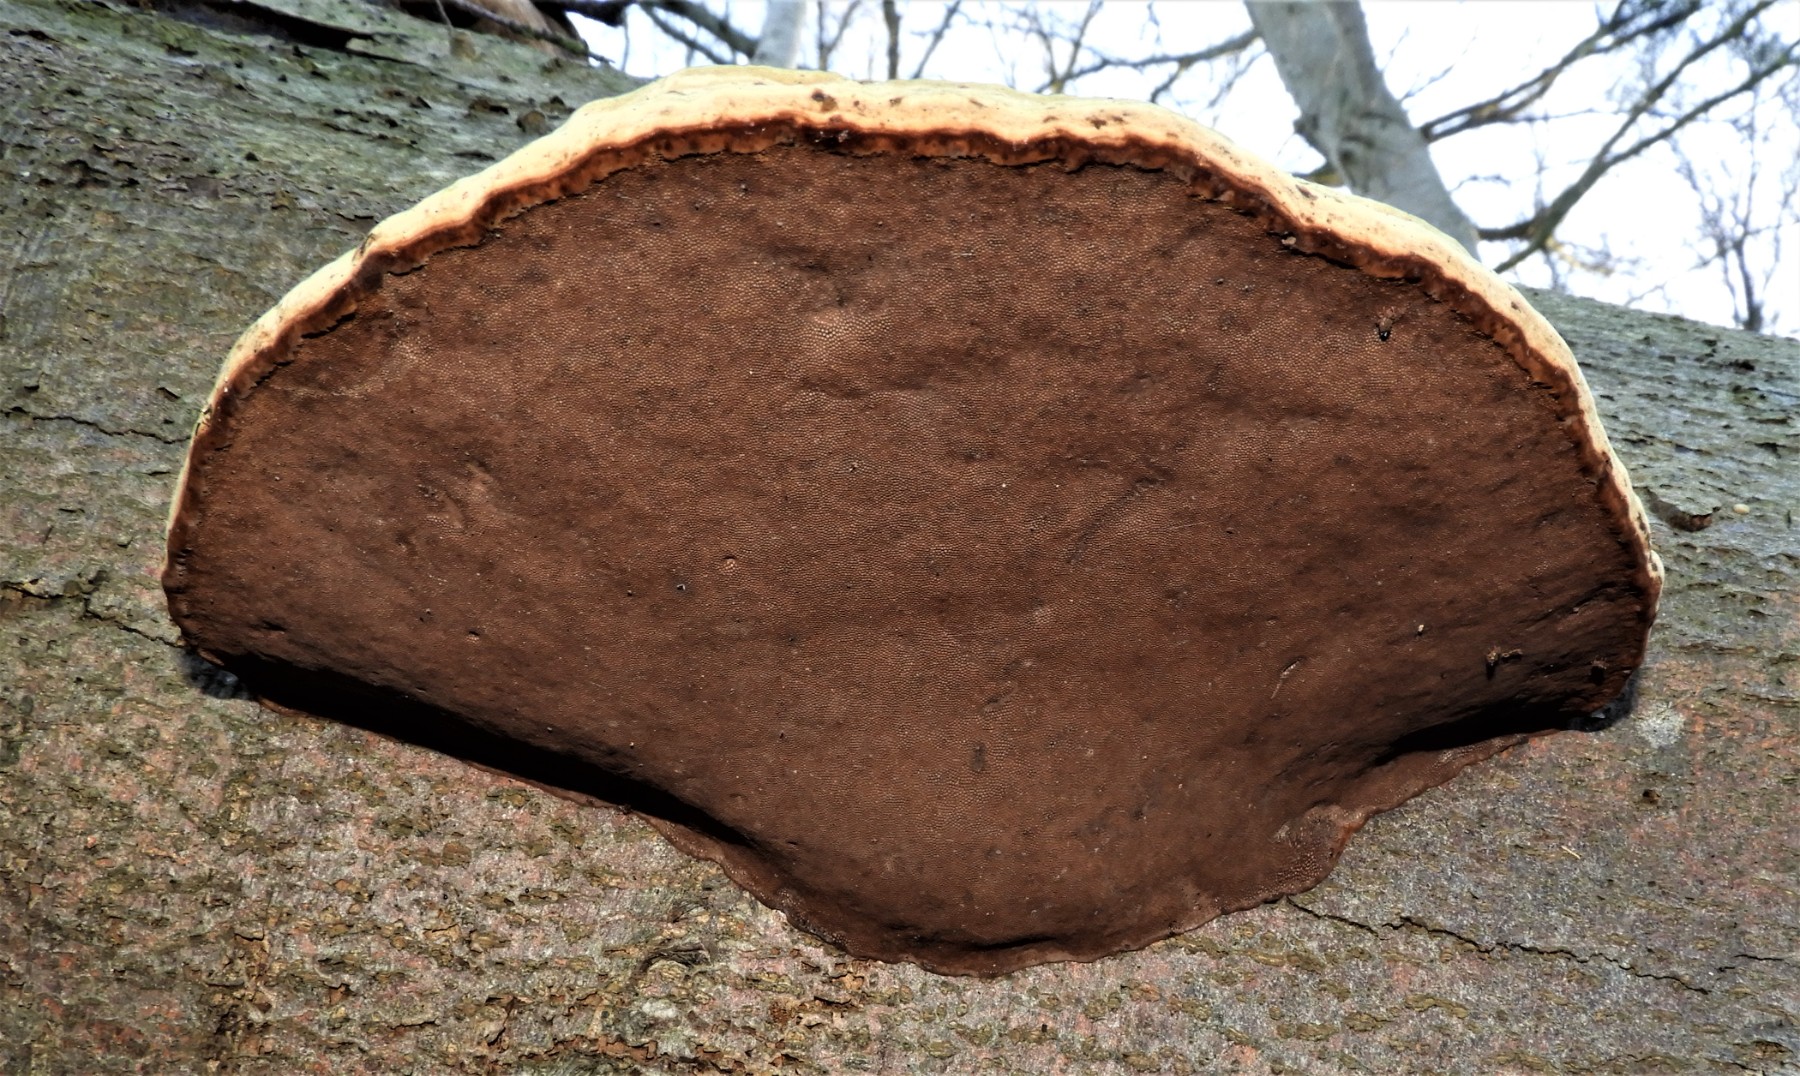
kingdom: Fungi
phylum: Basidiomycota
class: Agaricomycetes
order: Polyporales
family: Polyporaceae
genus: Fomes
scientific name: Fomes fomentarius
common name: tøndersvamp
